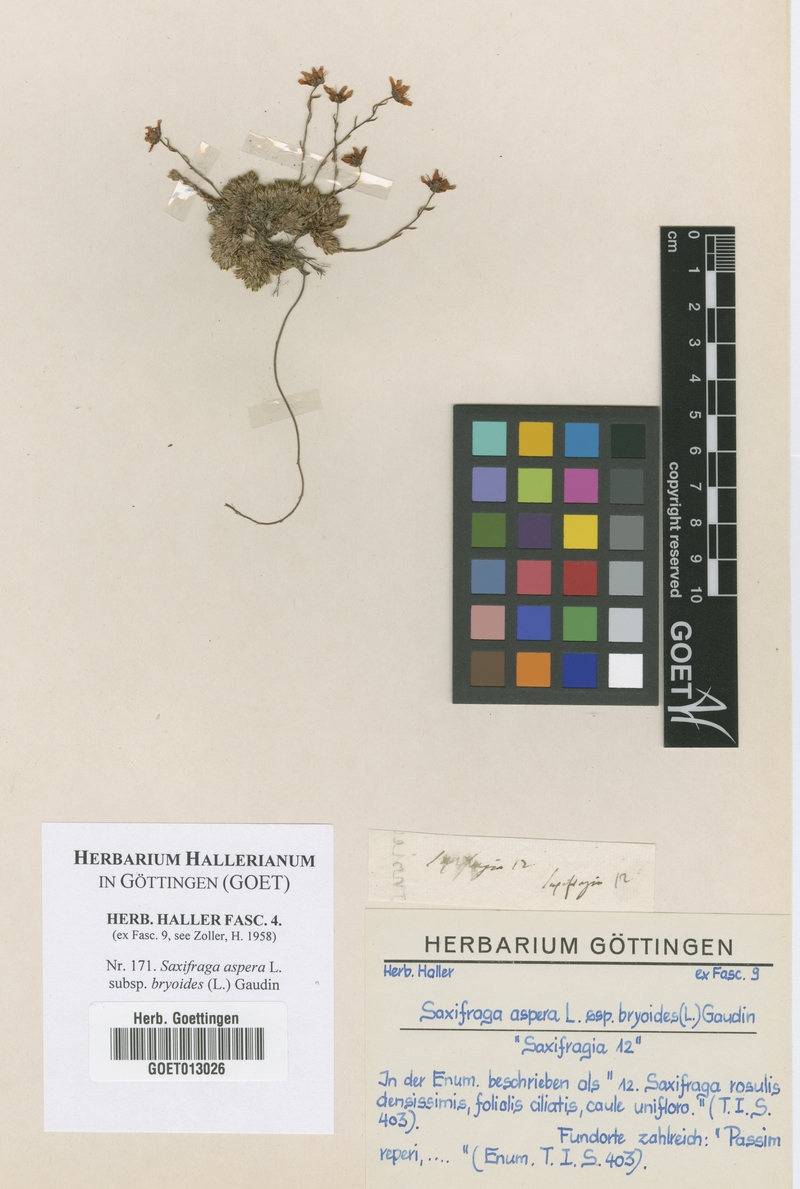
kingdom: Plantae
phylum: Tracheophyta
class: Magnoliopsida
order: Saxifragales
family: Saxifragaceae
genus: Saxifraga
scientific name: Saxifraga bryoides
